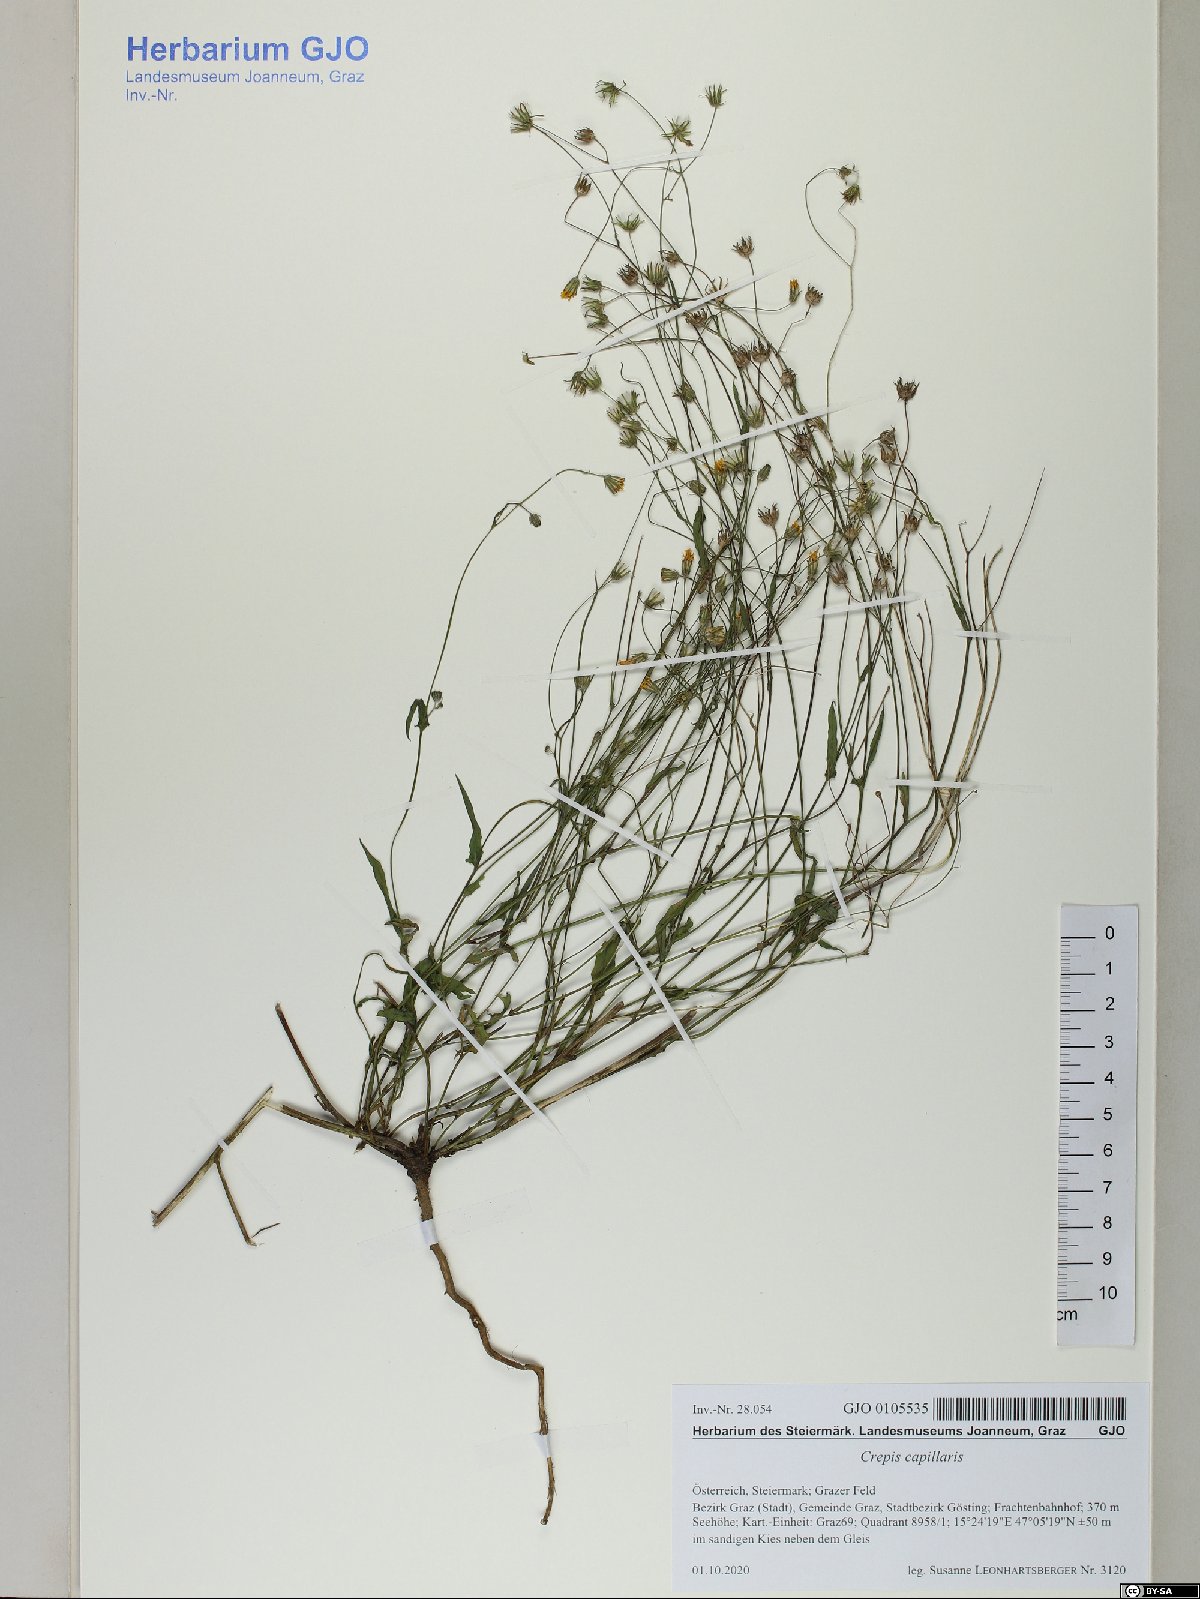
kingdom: Plantae
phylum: Tracheophyta
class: Magnoliopsida
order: Asterales
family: Asteraceae
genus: Crepis
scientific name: Crepis capillaris
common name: Smooth hawksbeard
